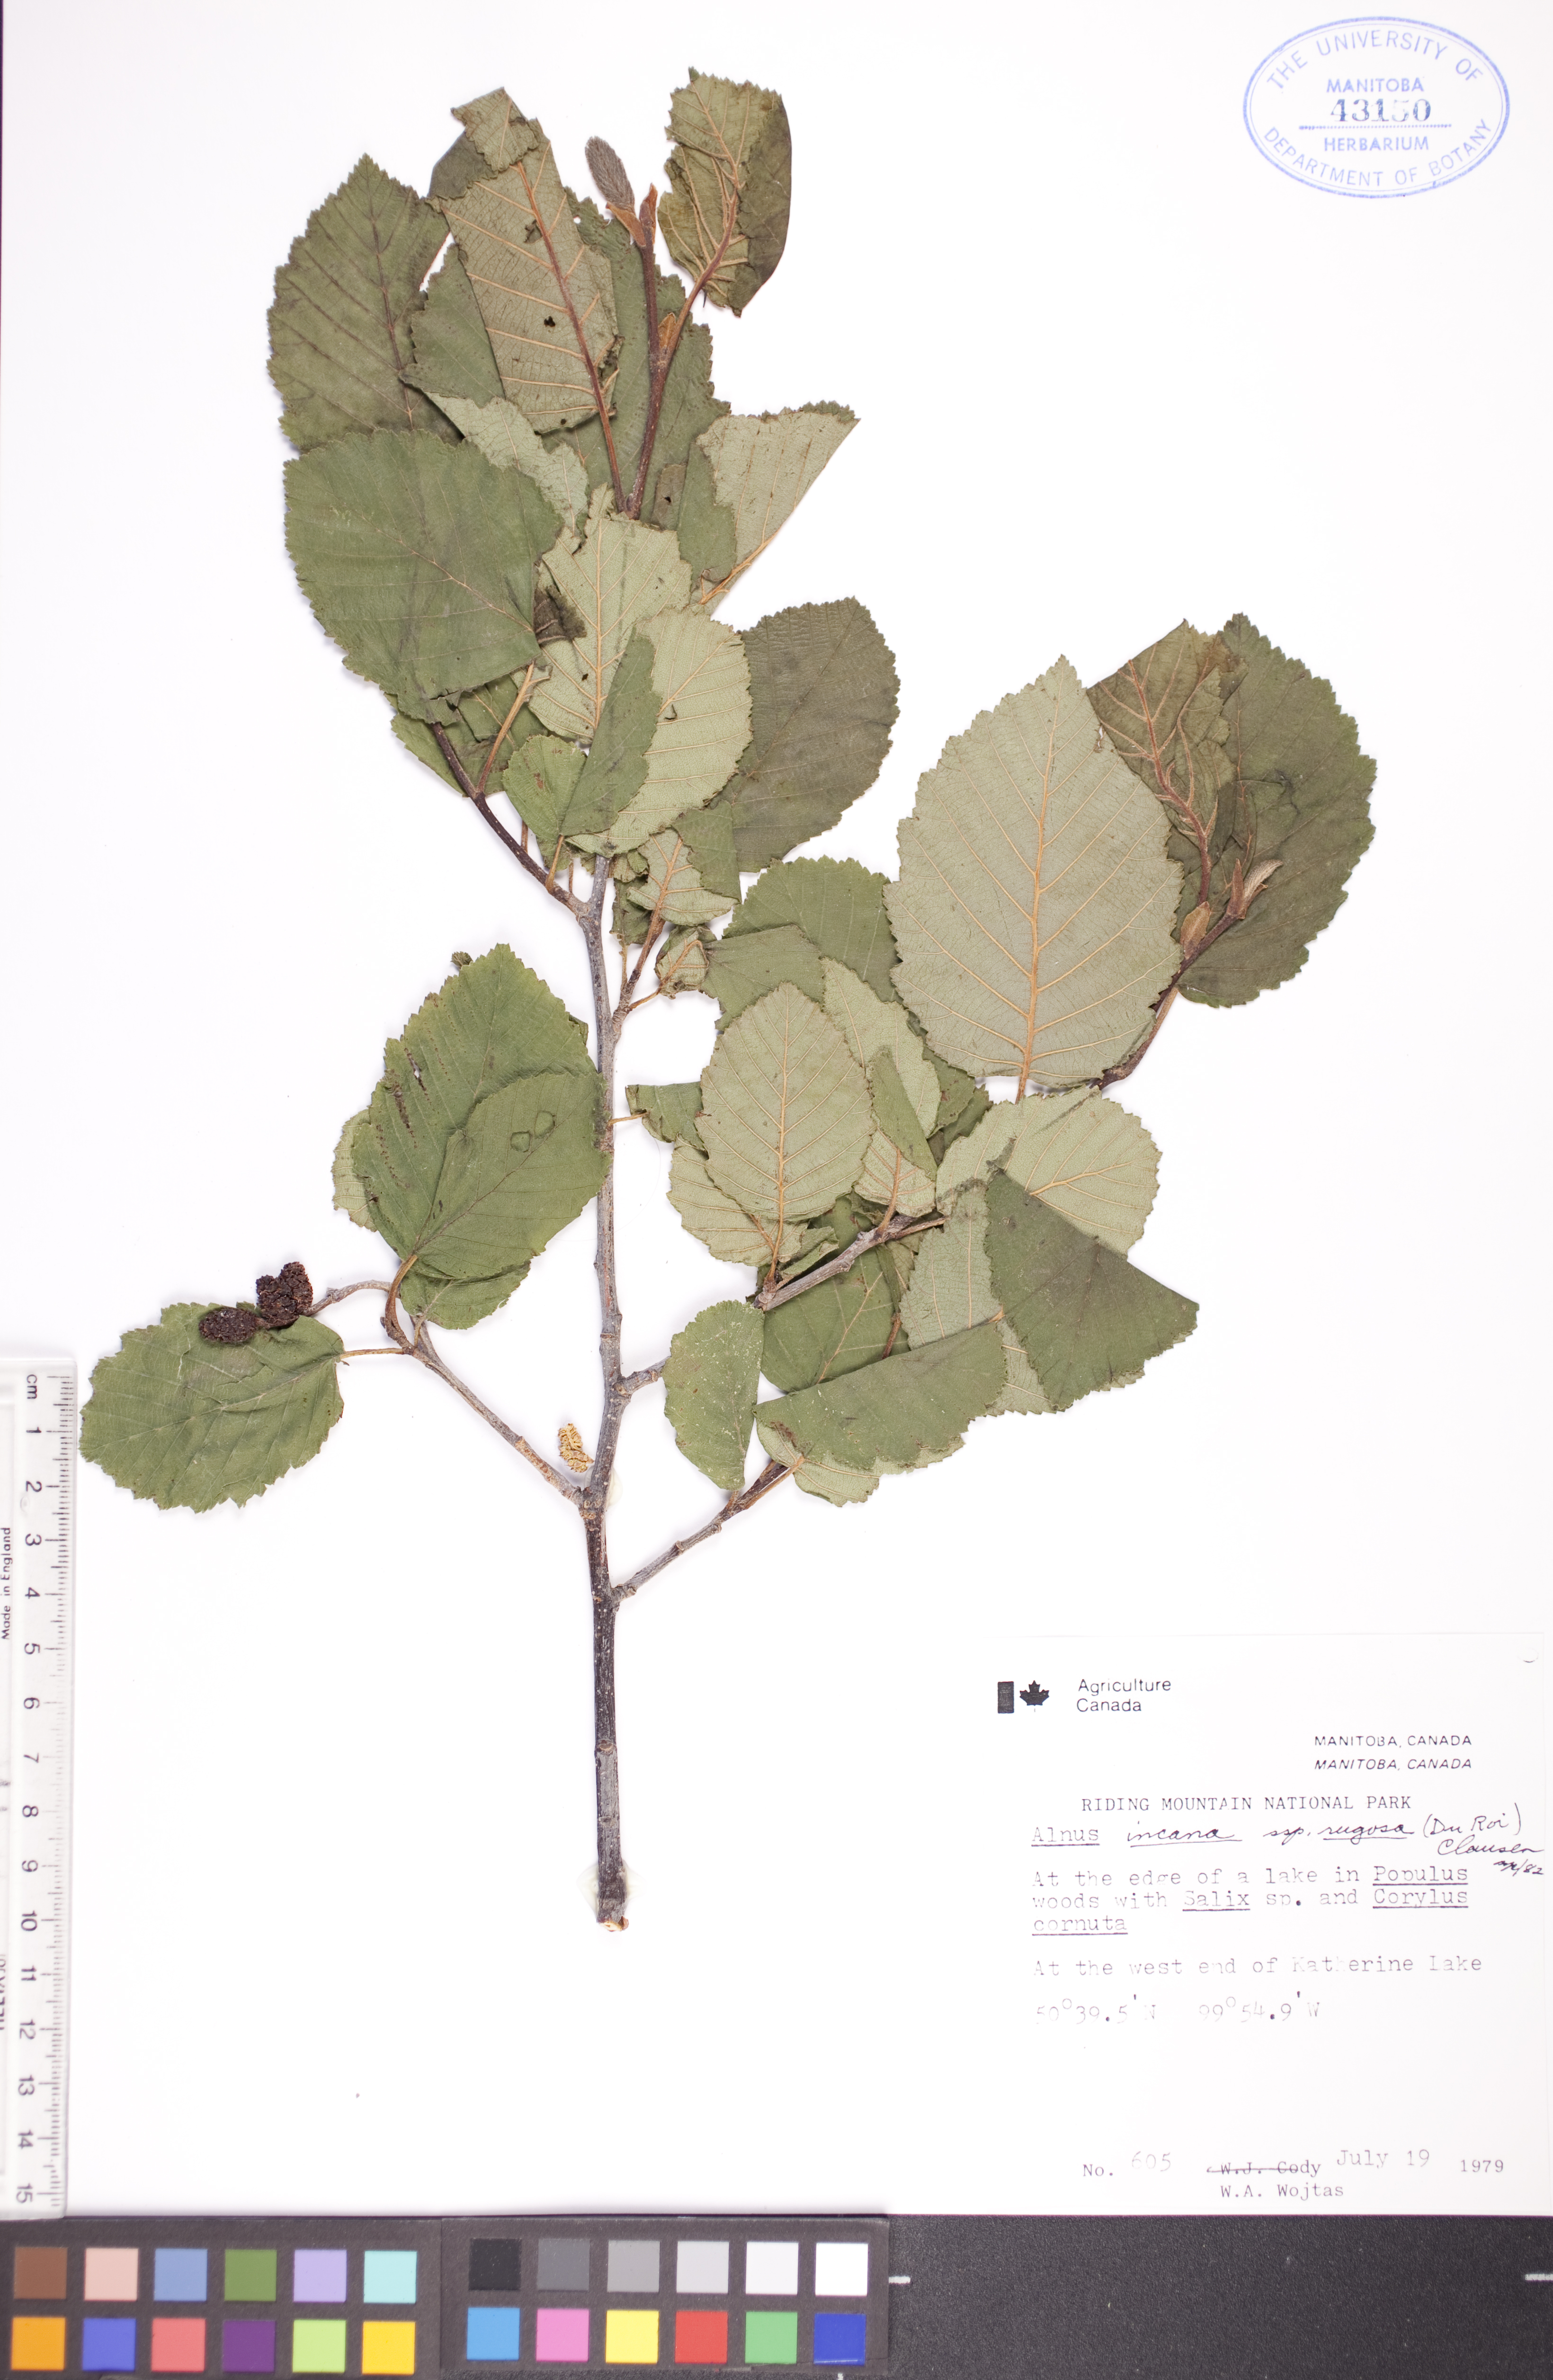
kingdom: Plantae
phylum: Tracheophyta
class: Magnoliopsida
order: Fagales
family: Betulaceae
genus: Alnus
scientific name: Alnus incana
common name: Grey alder
